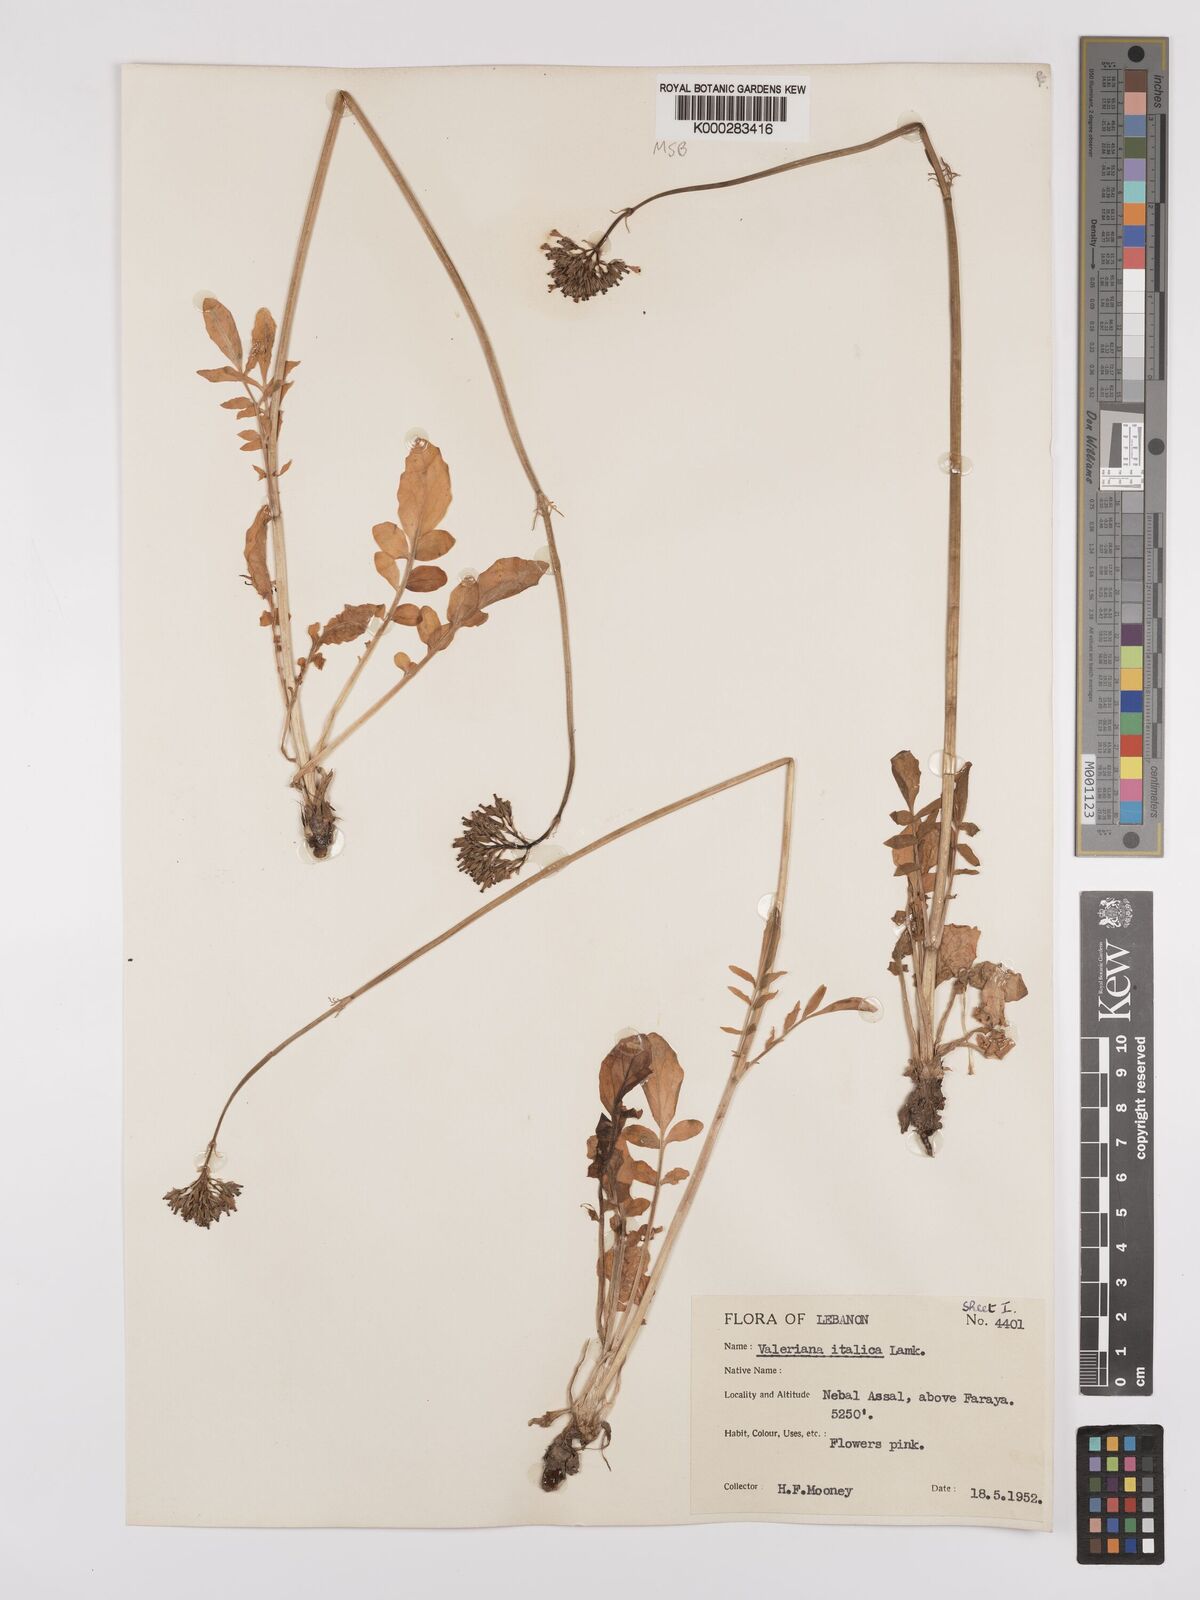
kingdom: Plantae
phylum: Tracheophyta
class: Magnoliopsida
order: Dipsacales
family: Caprifoliaceae
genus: Valeriana
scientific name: Valeriana dioscoridis
